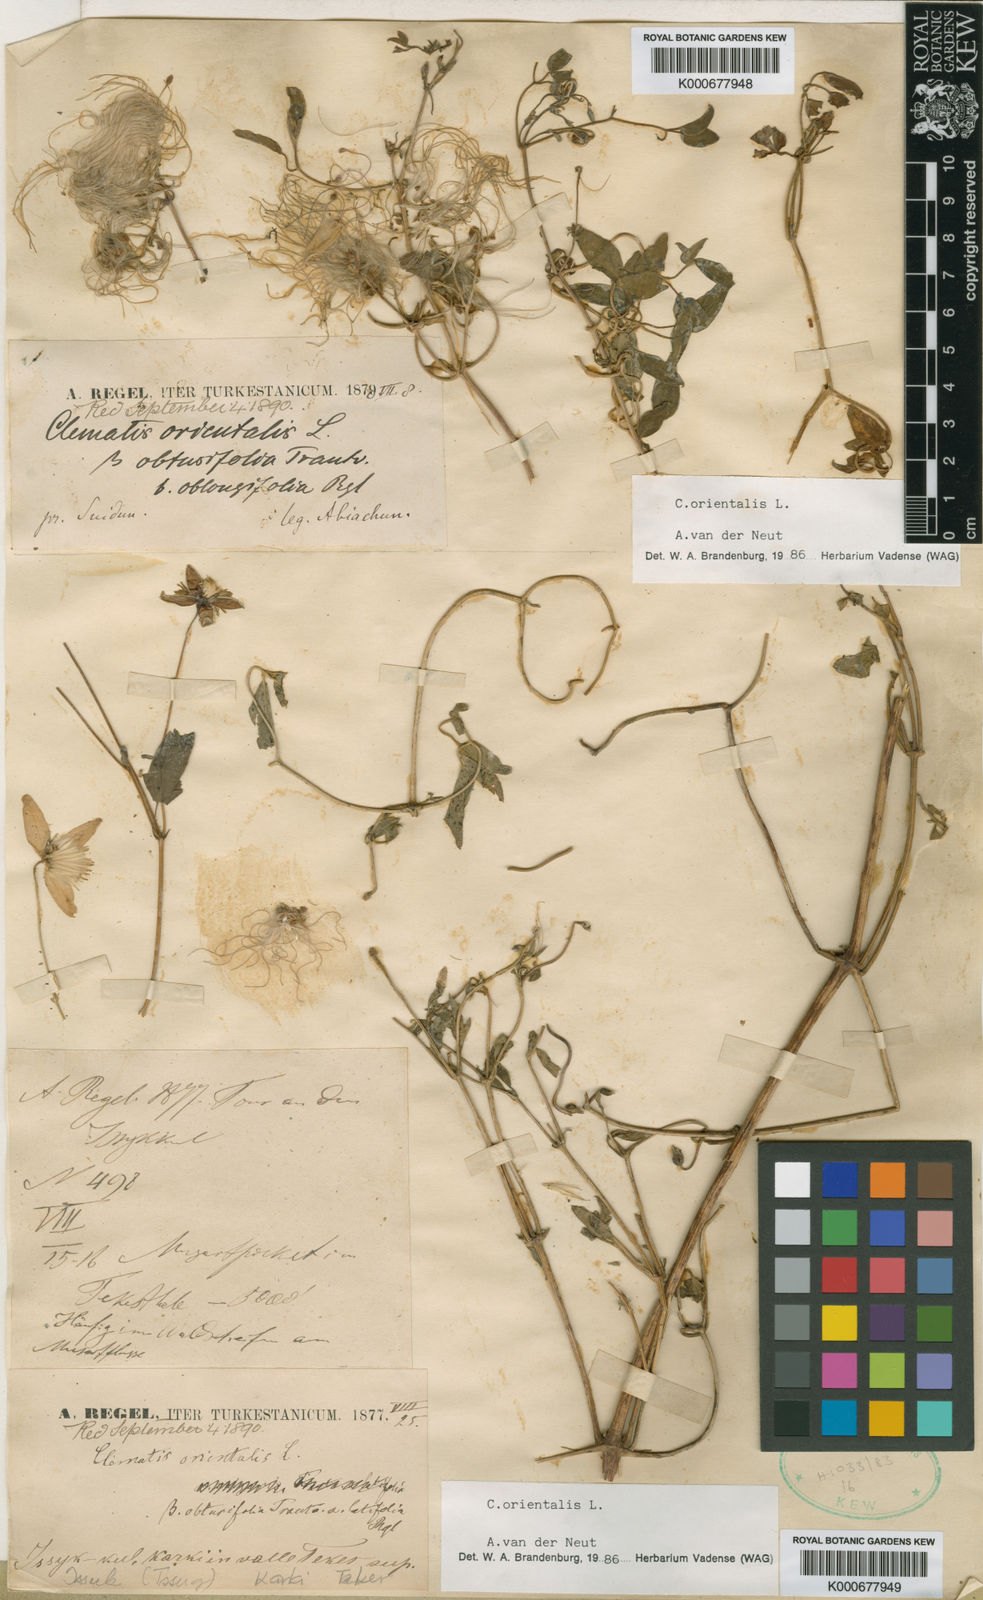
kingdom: Plantae
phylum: Tracheophyta
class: Magnoliopsida
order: Ranunculales
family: Ranunculaceae
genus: Clematis
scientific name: Clematis orientalis
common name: Oriental virgin's-bower
